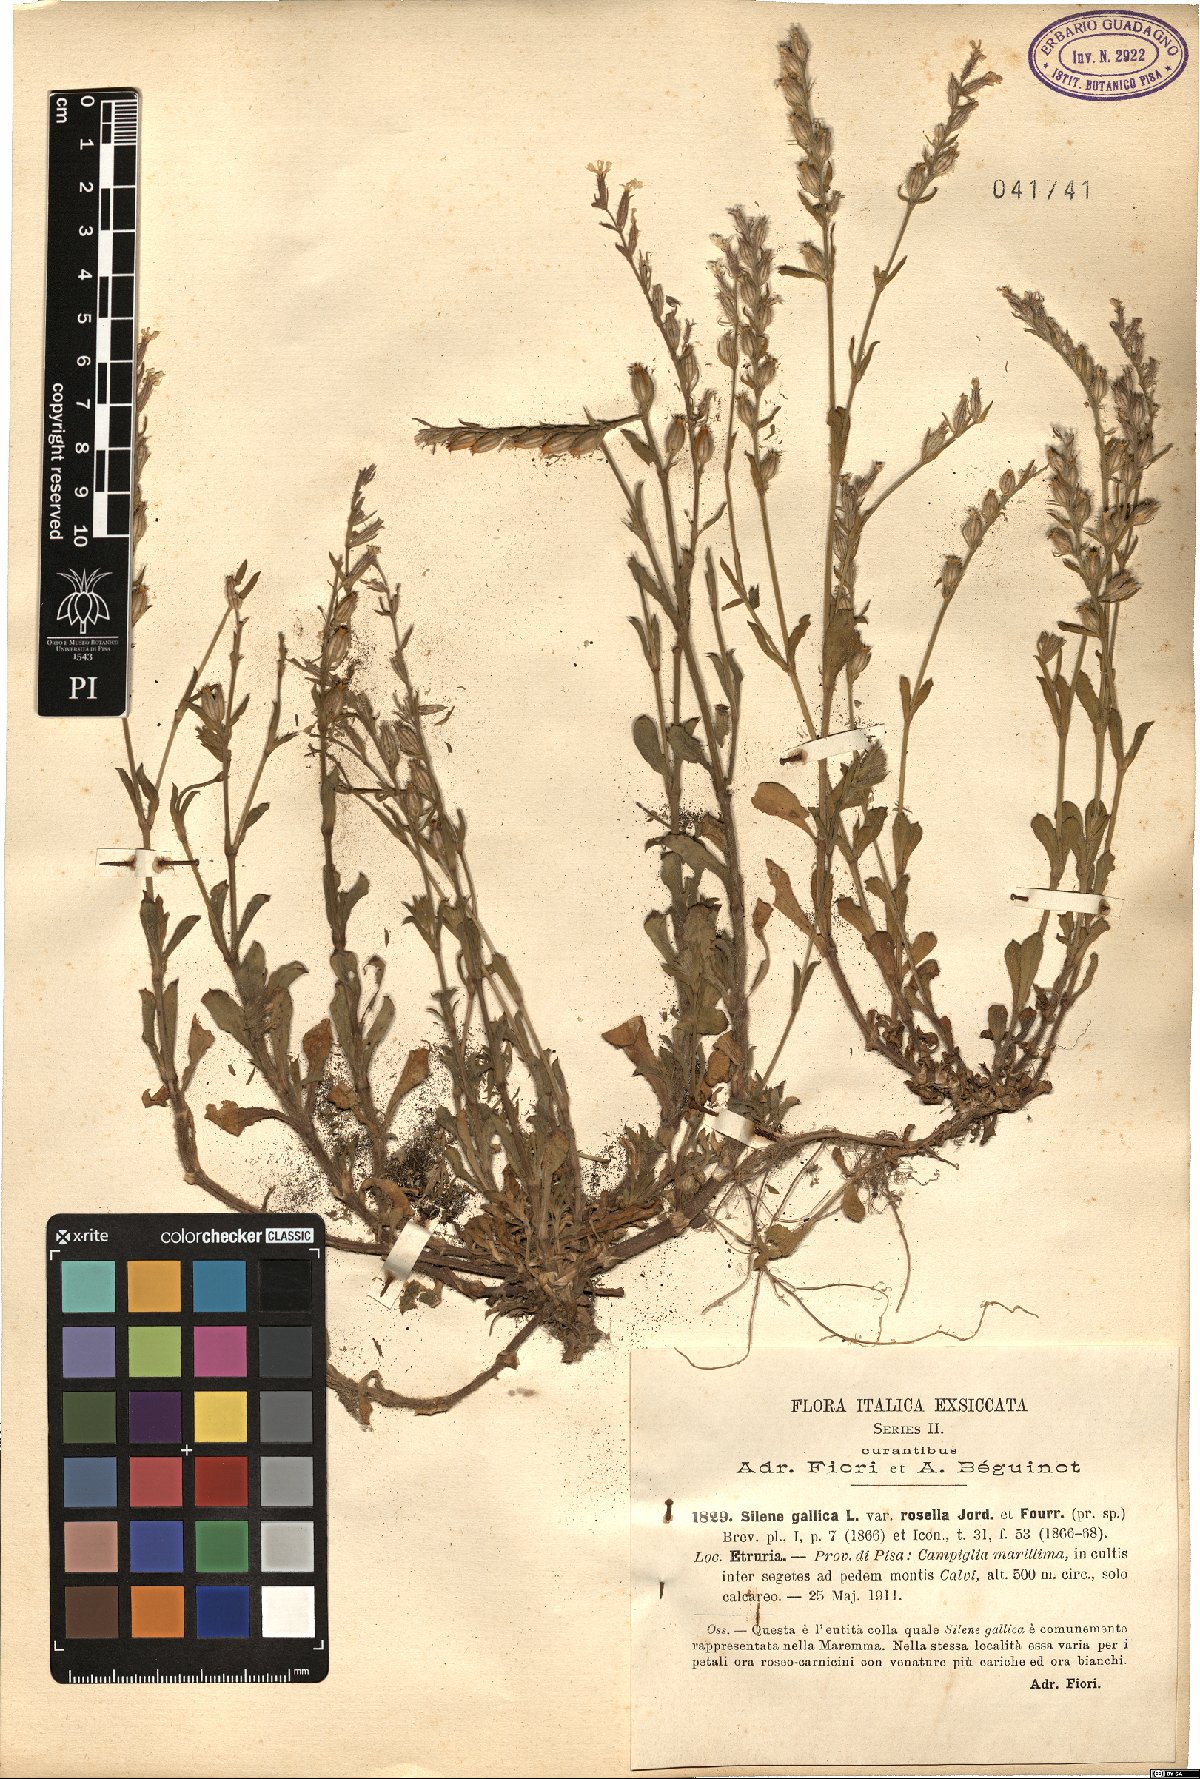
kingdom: Plantae
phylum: Tracheophyta
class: Magnoliopsida
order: Caryophyllales
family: Caryophyllaceae
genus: Silene
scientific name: Silene gallica
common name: Small-flowered catchfly
